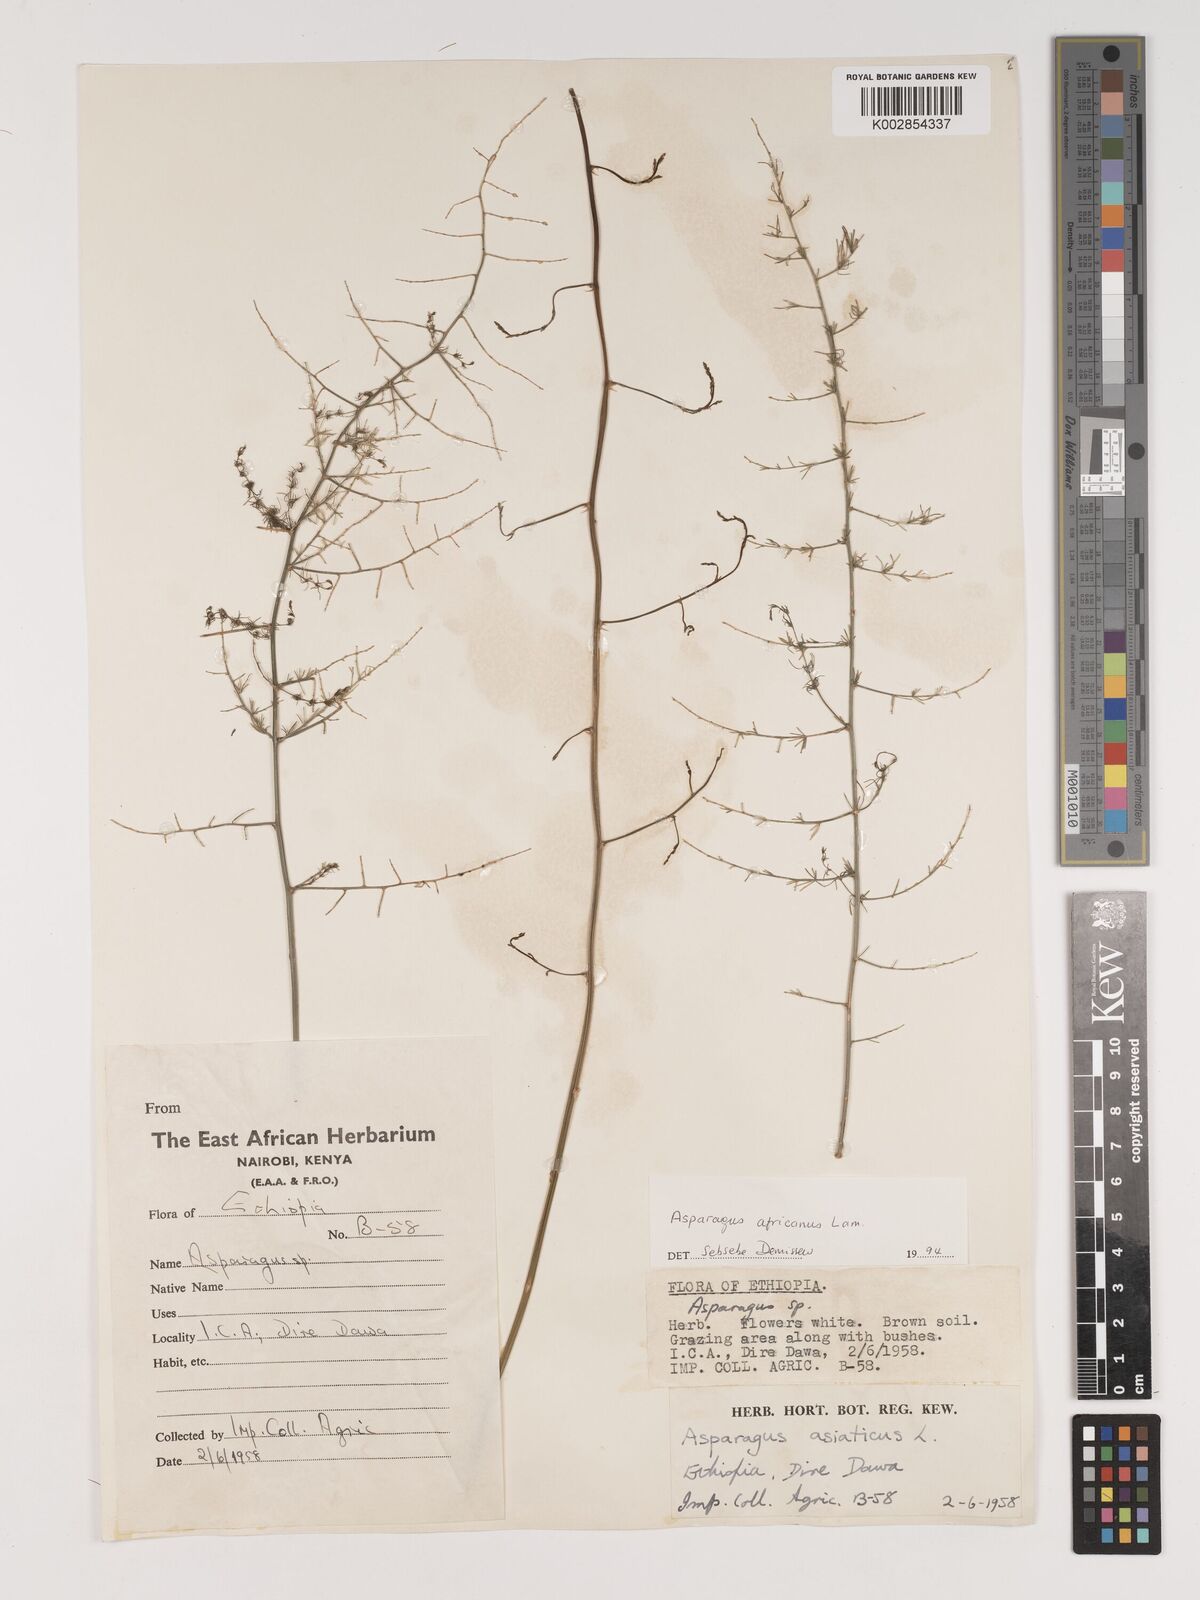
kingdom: Plantae
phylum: Tracheophyta
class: Liliopsida
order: Asparagales
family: Asparagaceae
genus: Asparagus
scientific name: Asparagus africanus
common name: Asparagus-fern
